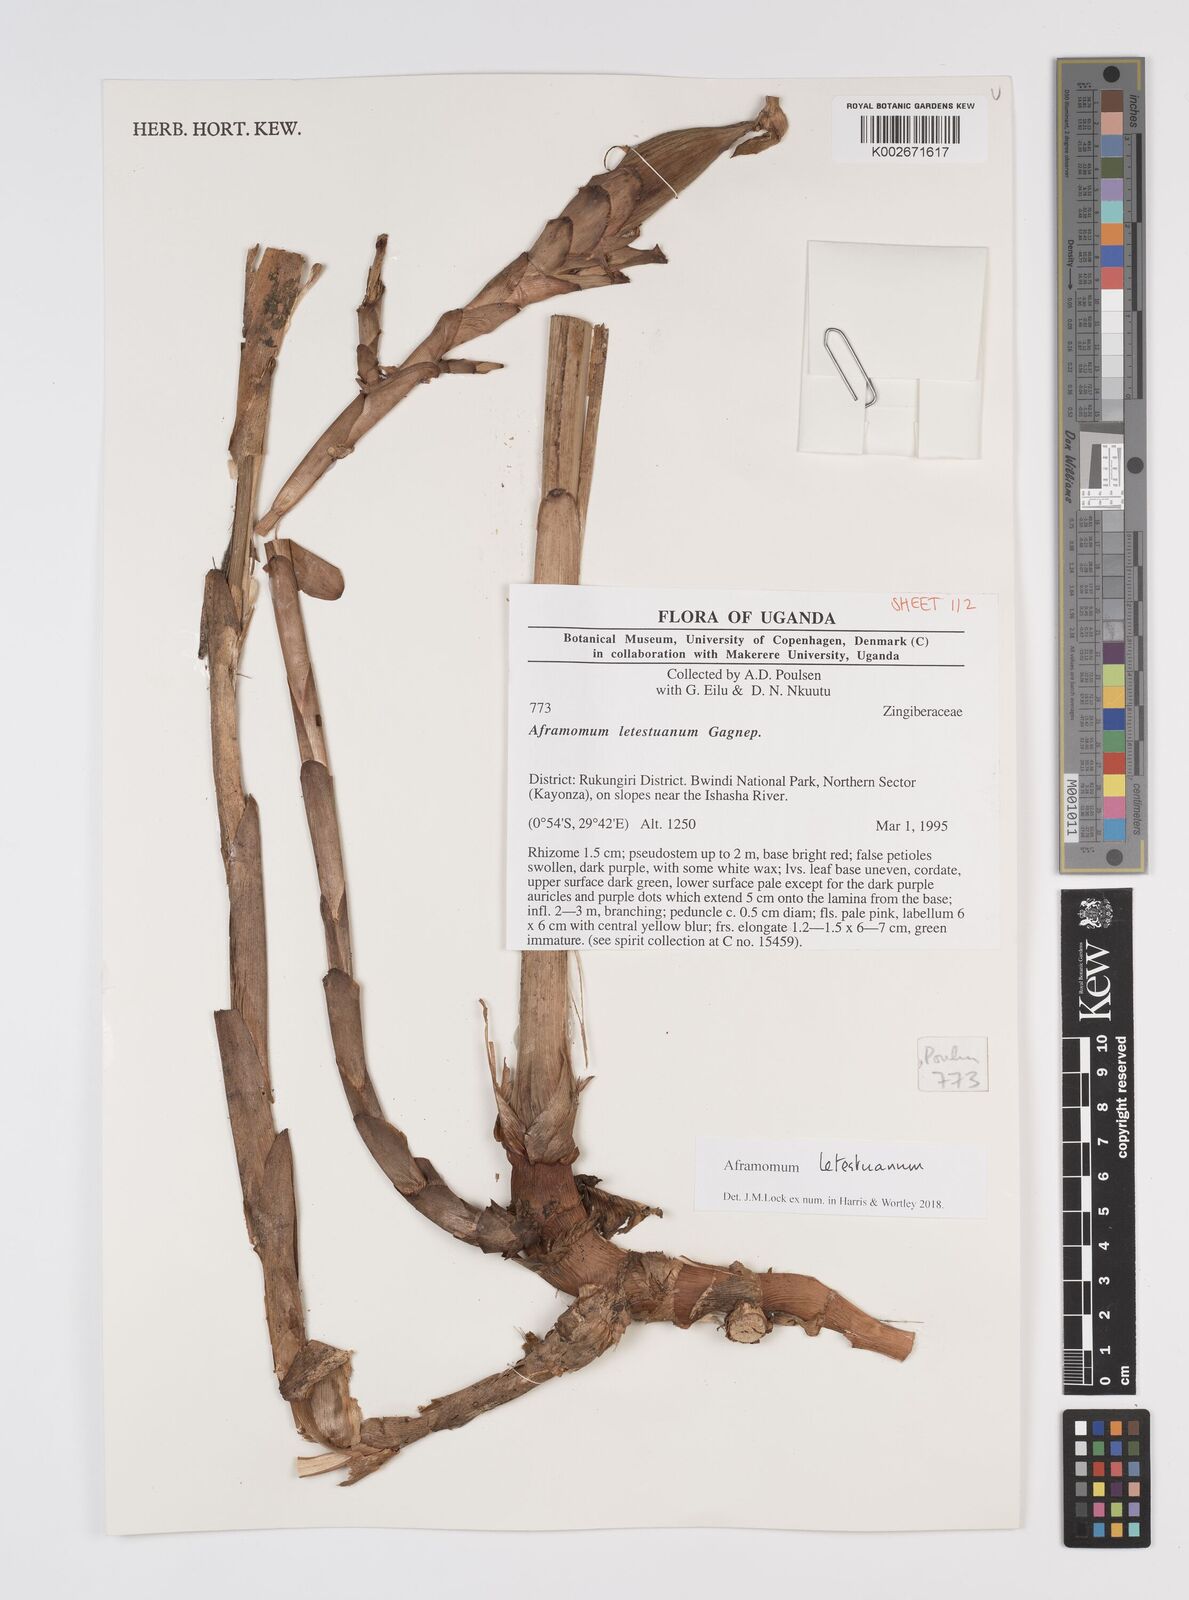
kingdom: Plantae
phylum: Tracheophyta
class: Liliopsida
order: Zingiberales
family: Zingiberaceae
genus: Aframomum
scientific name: Aframomum letestuanum
